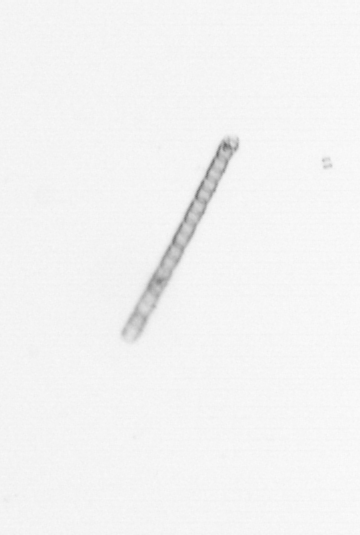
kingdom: Chromista
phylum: Ochrophyta
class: Bacillariophyceae
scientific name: Bacillariophyceae
